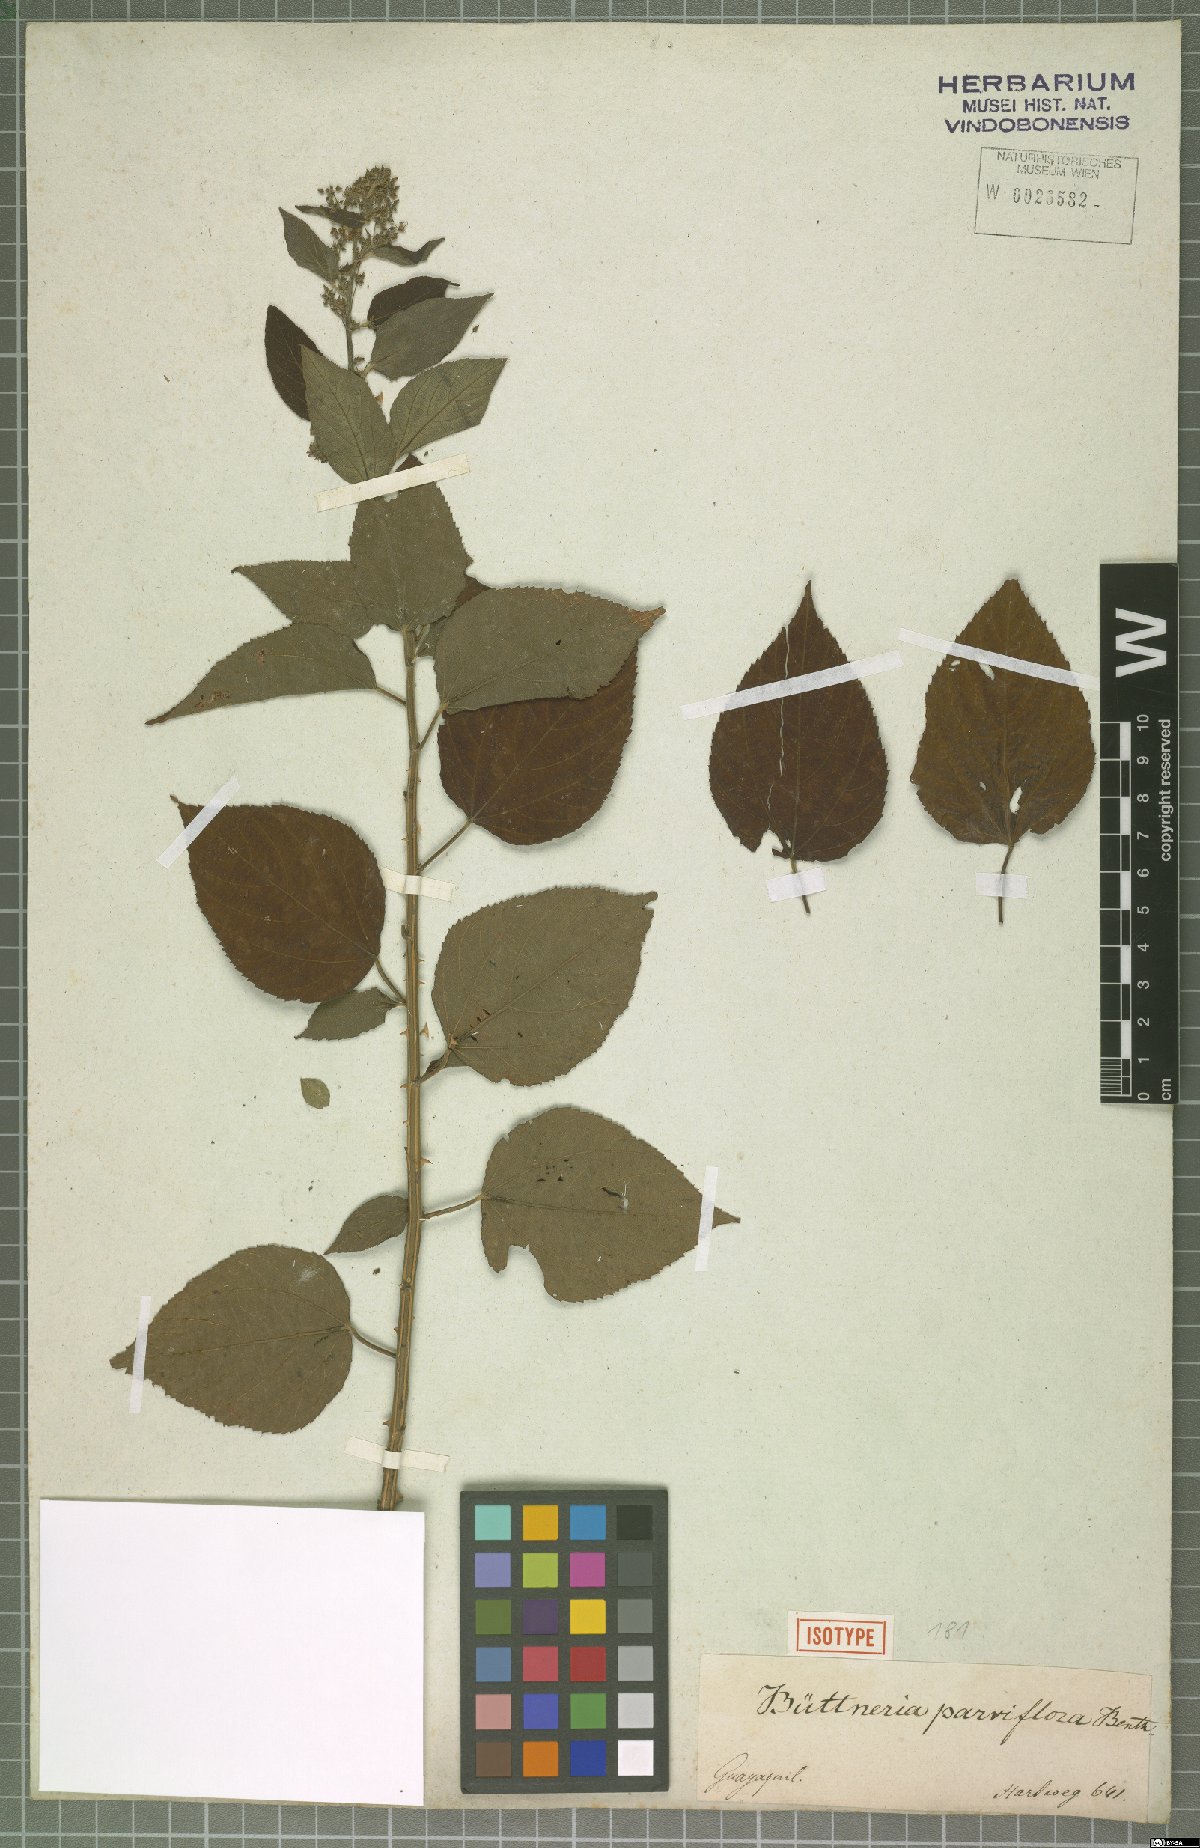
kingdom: Plantae
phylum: Tracheophyta
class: Magnoliopsida
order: Malvales
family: Malvaceae
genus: Byttneria
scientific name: Byttneria corchorifolia
